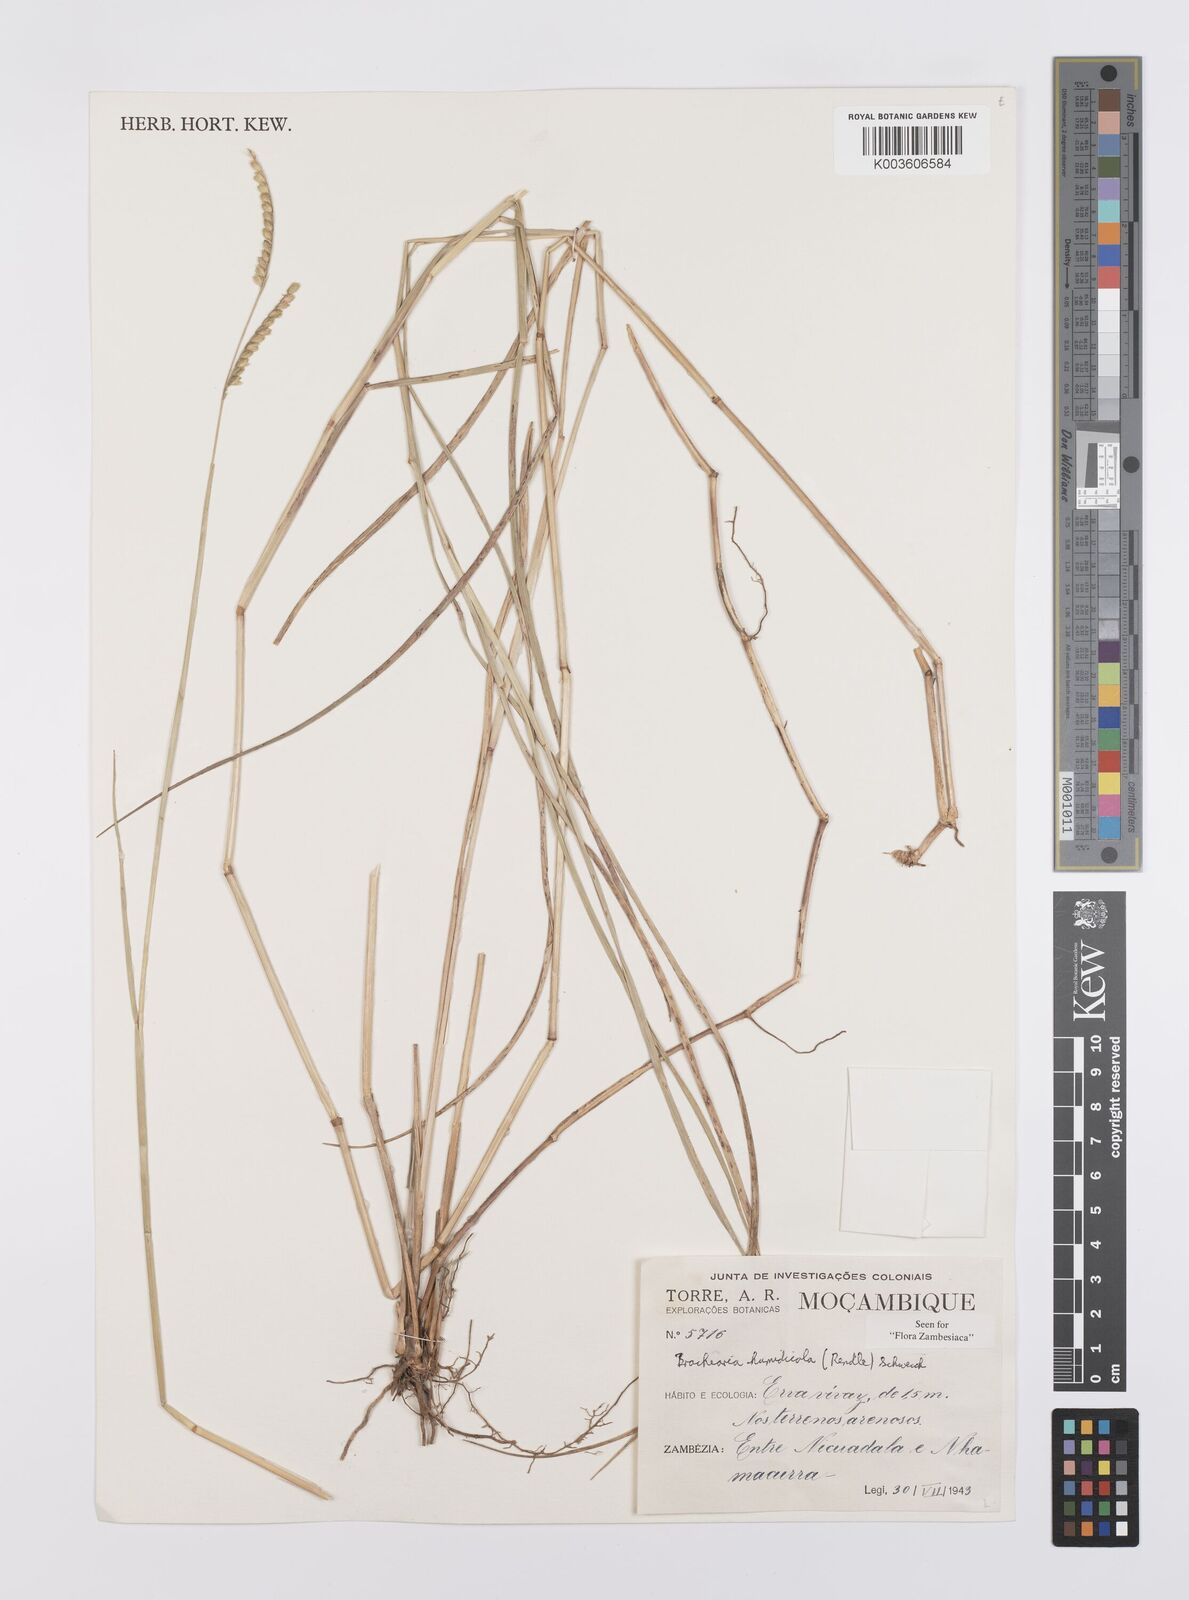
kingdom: Plantae
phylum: Tracheophyta
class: Liliopsida
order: Poales
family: Poaceae
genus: Urochloa
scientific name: Urochloa dictyoneura
